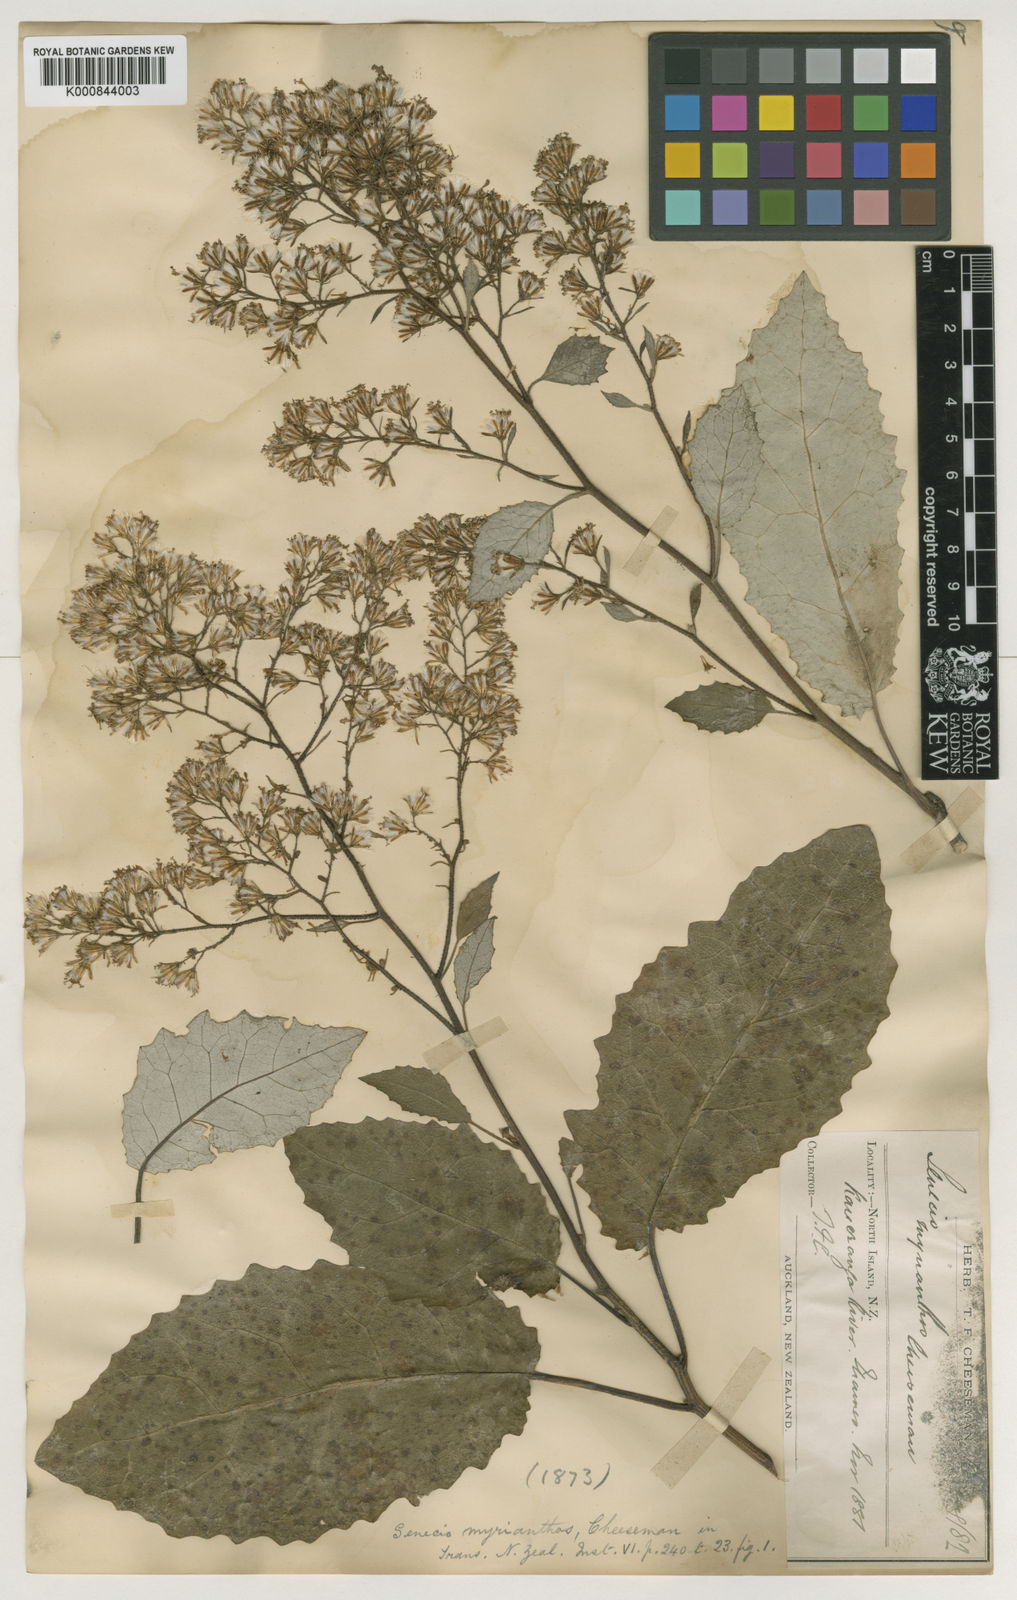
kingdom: Plantae
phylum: Tracheophyta
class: Magnoliopsida
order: Asterales
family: Asteraceae
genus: Brachyglottis
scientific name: Brachyglottis myrianthos
